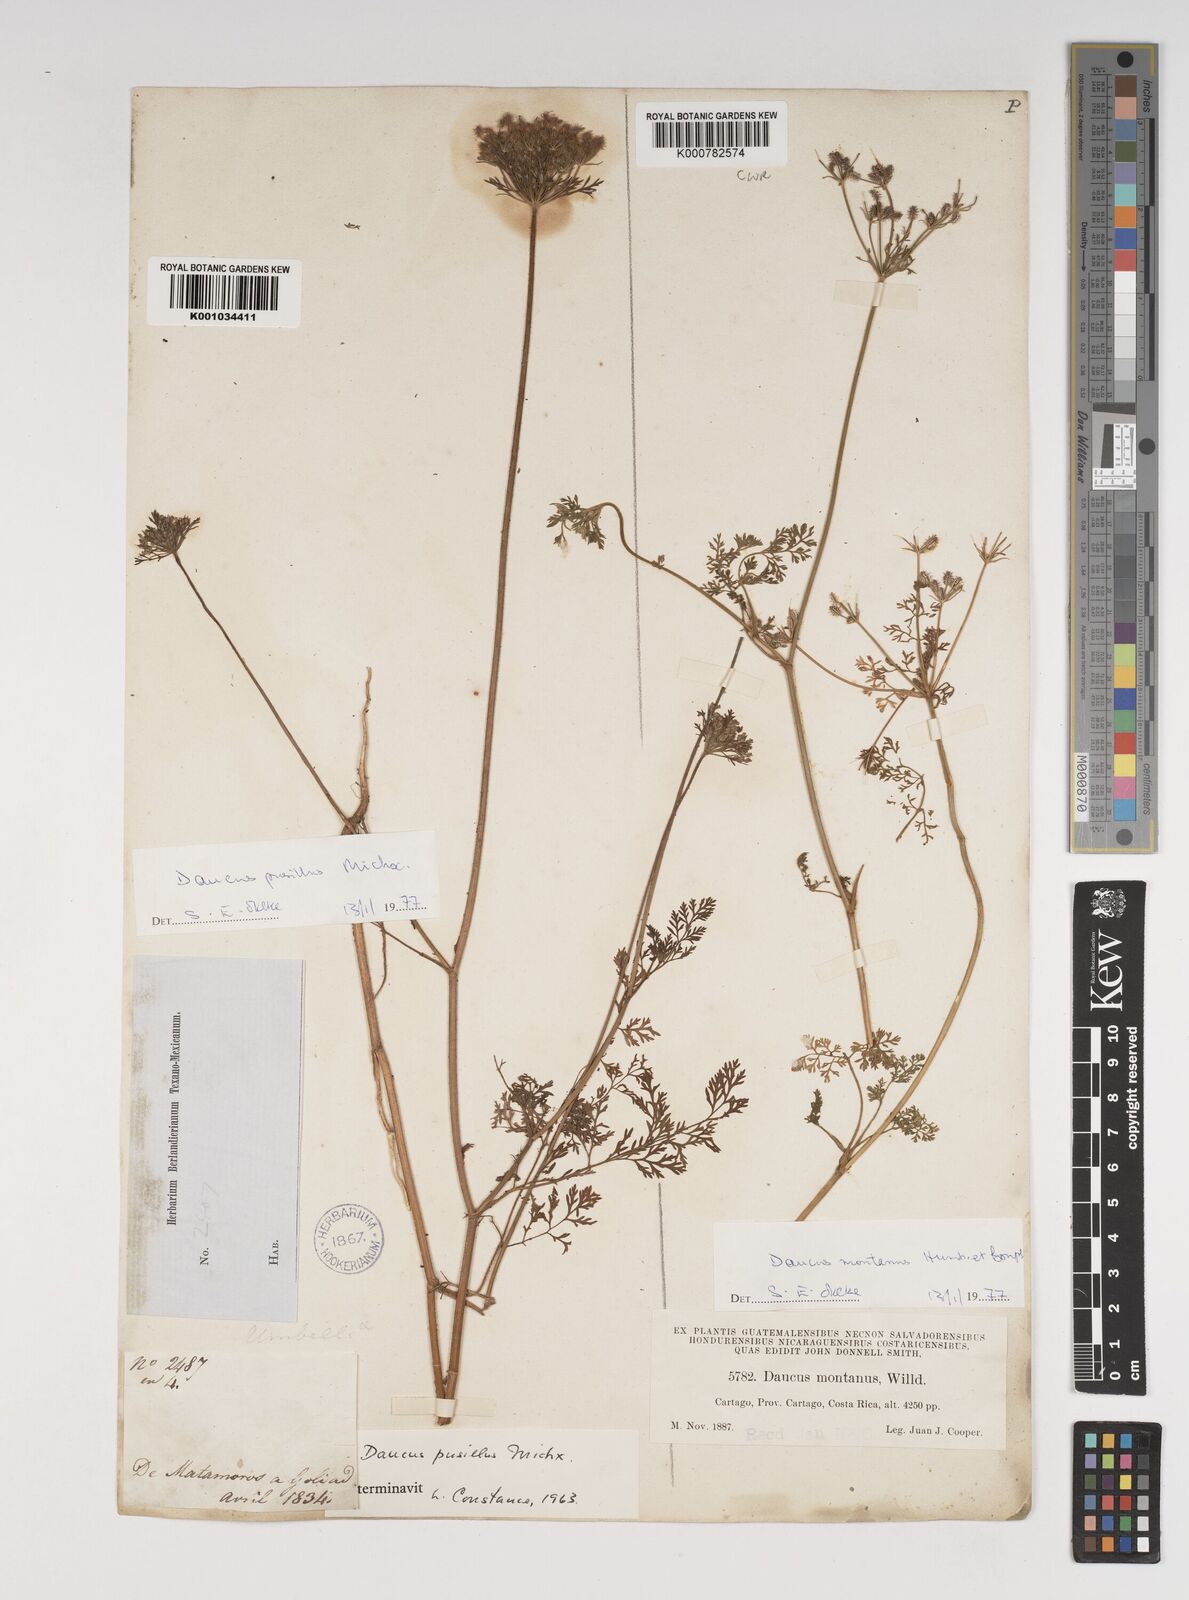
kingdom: Plantae
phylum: Tracheophyta
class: Magnoliopsida
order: Apiales
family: Apiaceae
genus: Daucus
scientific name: Daucus
